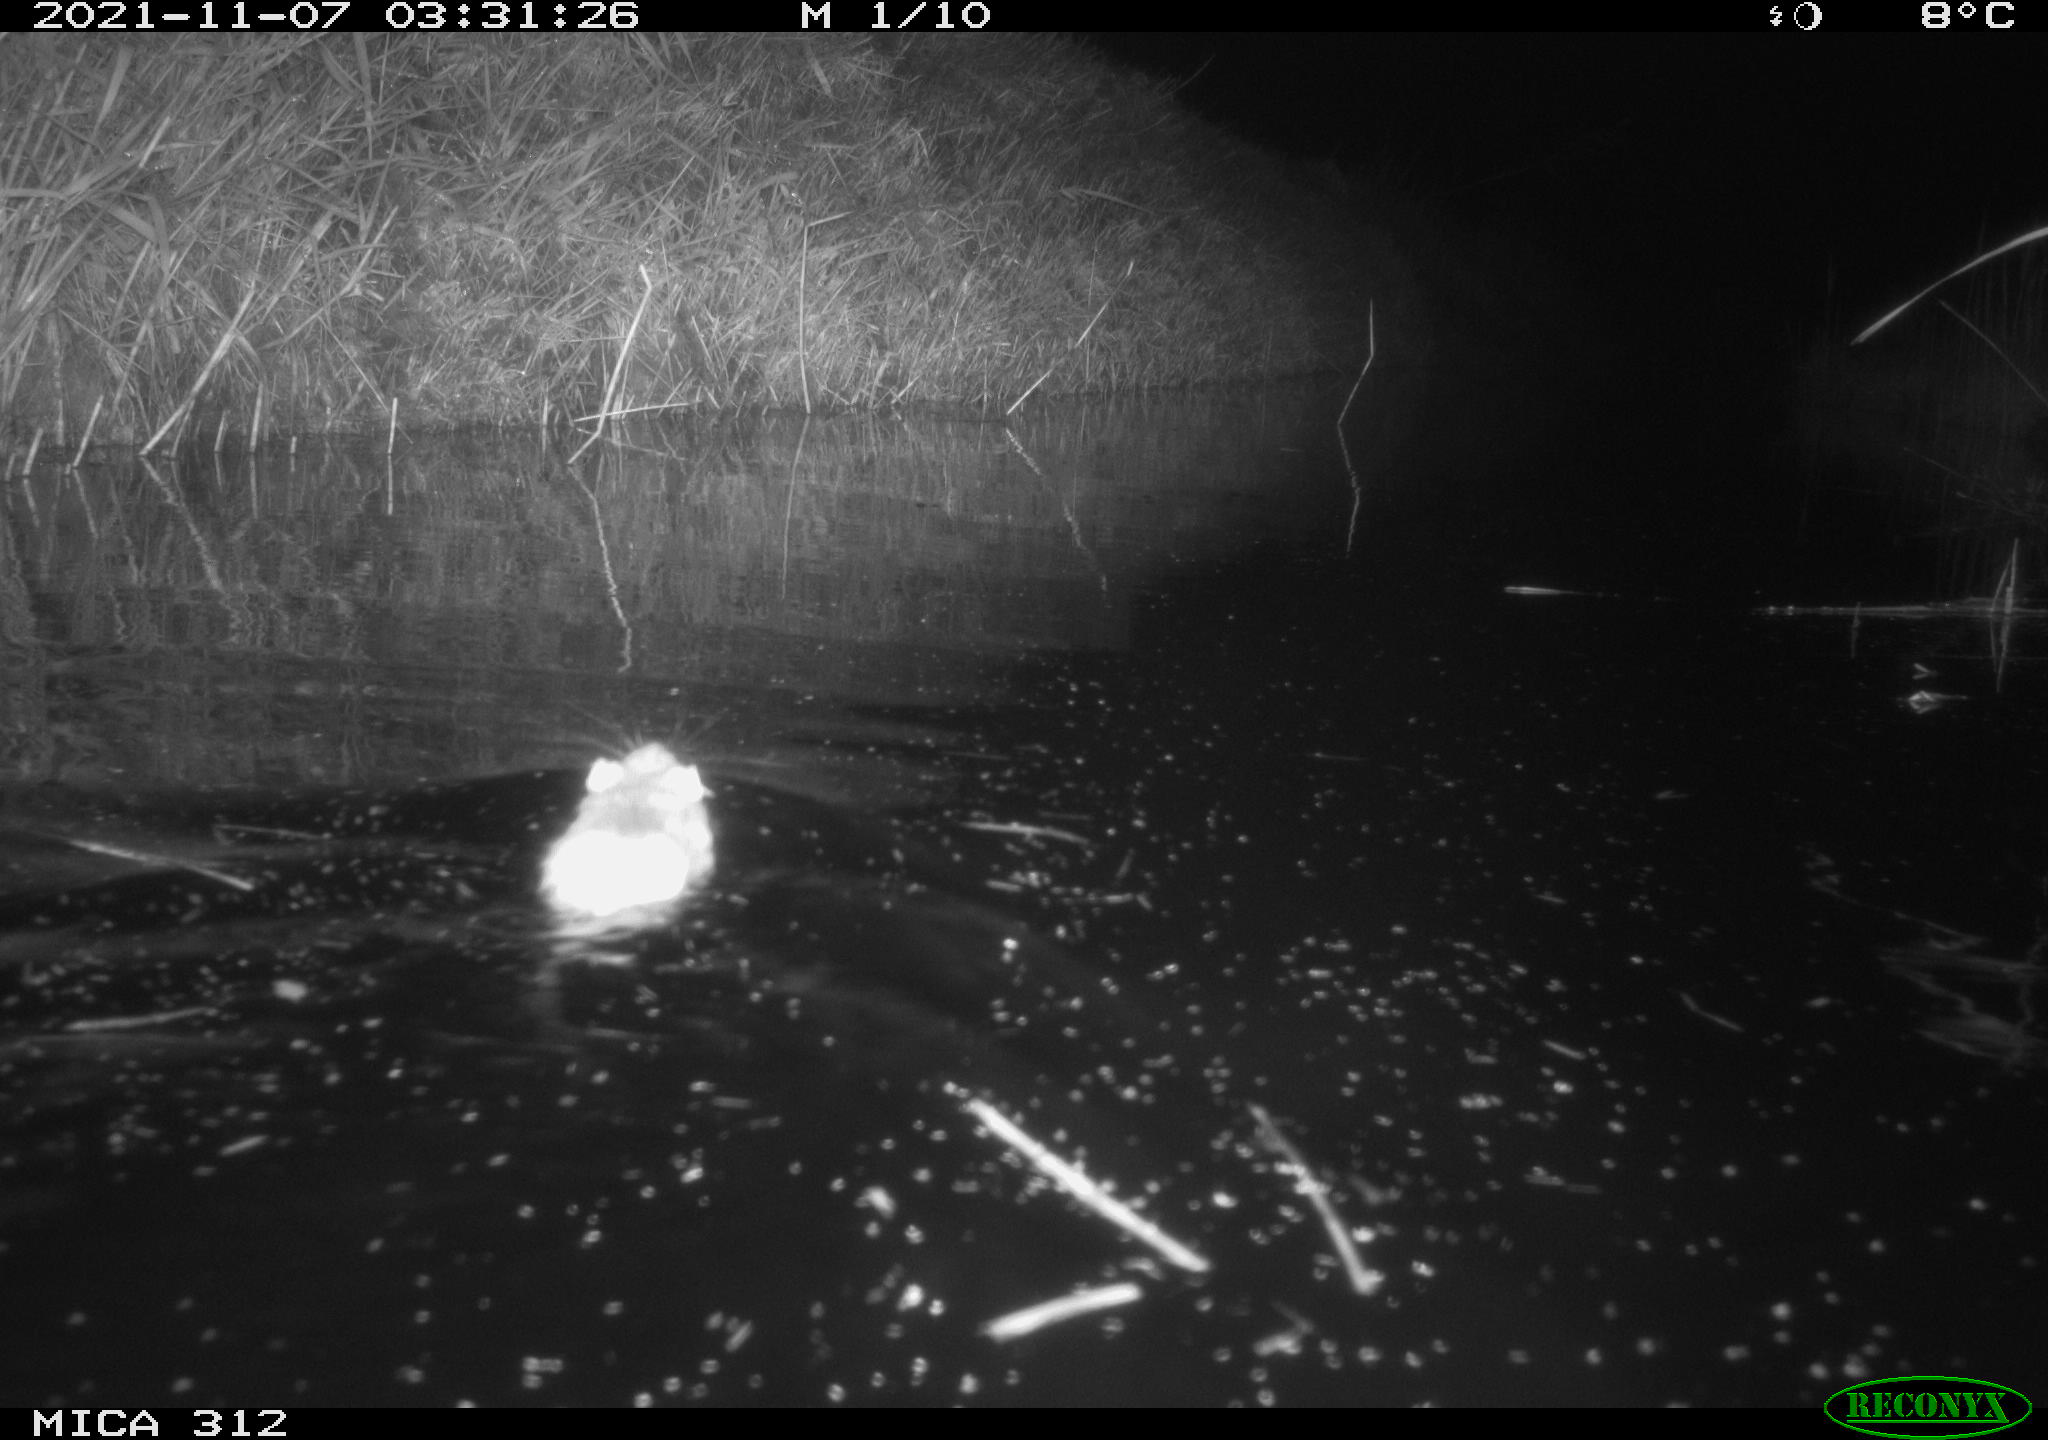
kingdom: Animalia
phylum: Chordata
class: Mammalia
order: Rodentia
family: Muridae
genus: Rattus
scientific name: Rattus norvegicus
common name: Brown rat
